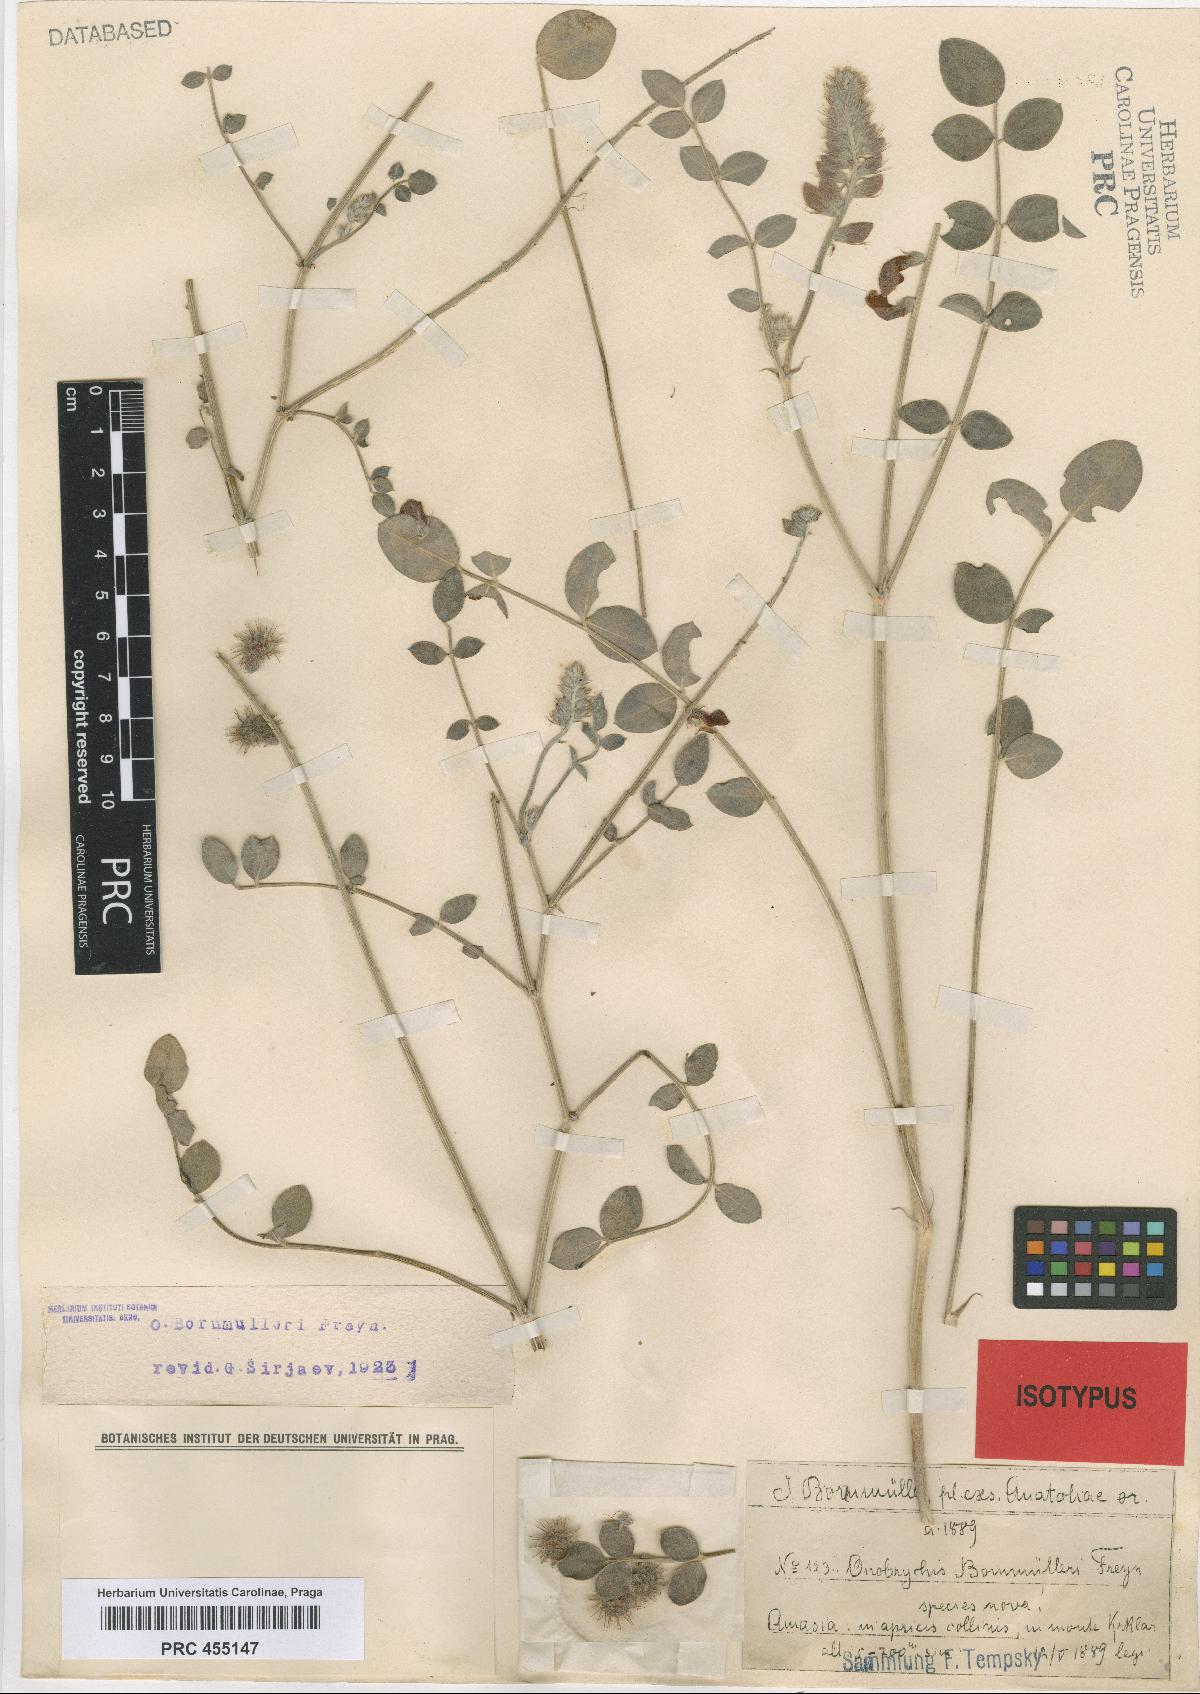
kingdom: Plantae
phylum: Tracheophyta
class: Magnoliopsida
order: Fabales
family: Fabaceae
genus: Onobrychis
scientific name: Onobrychis bornmuelleri
